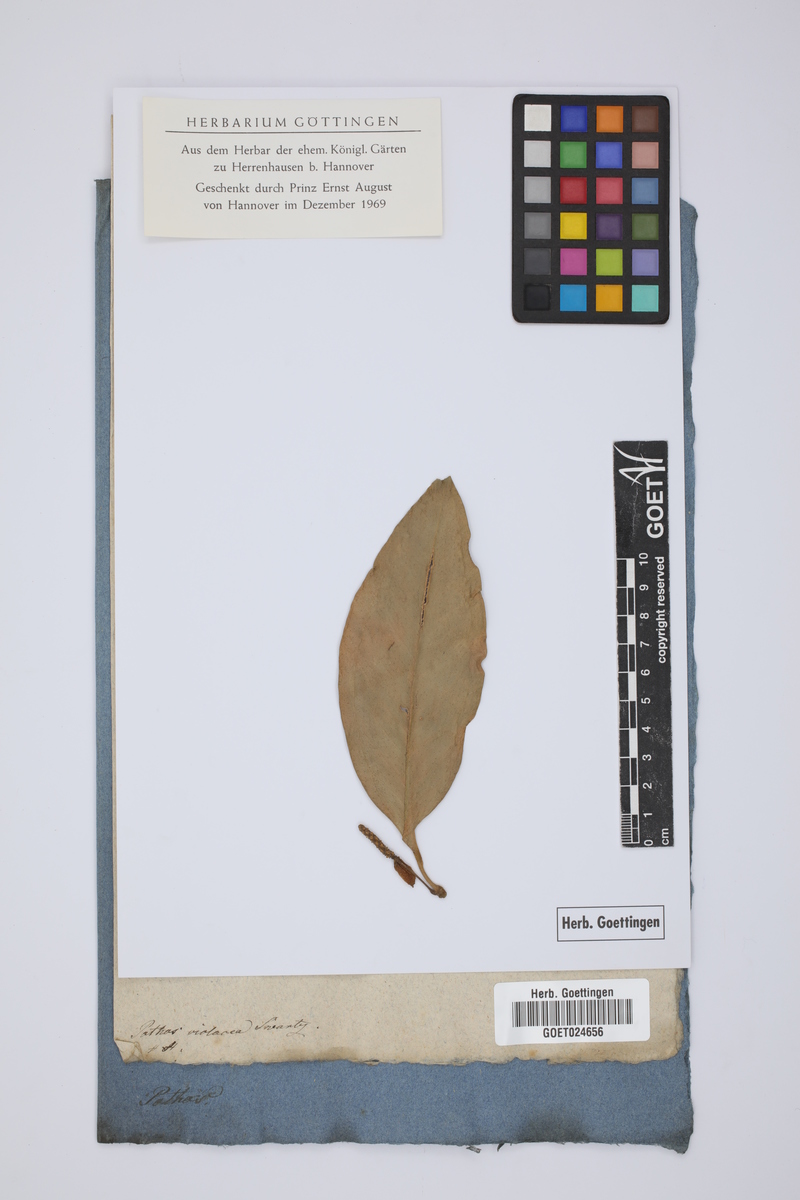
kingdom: Plantae
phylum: Tracheophyta
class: Liliopsida
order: Alismatales
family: Araceae
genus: Anthurium
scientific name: Anthurium scandens
